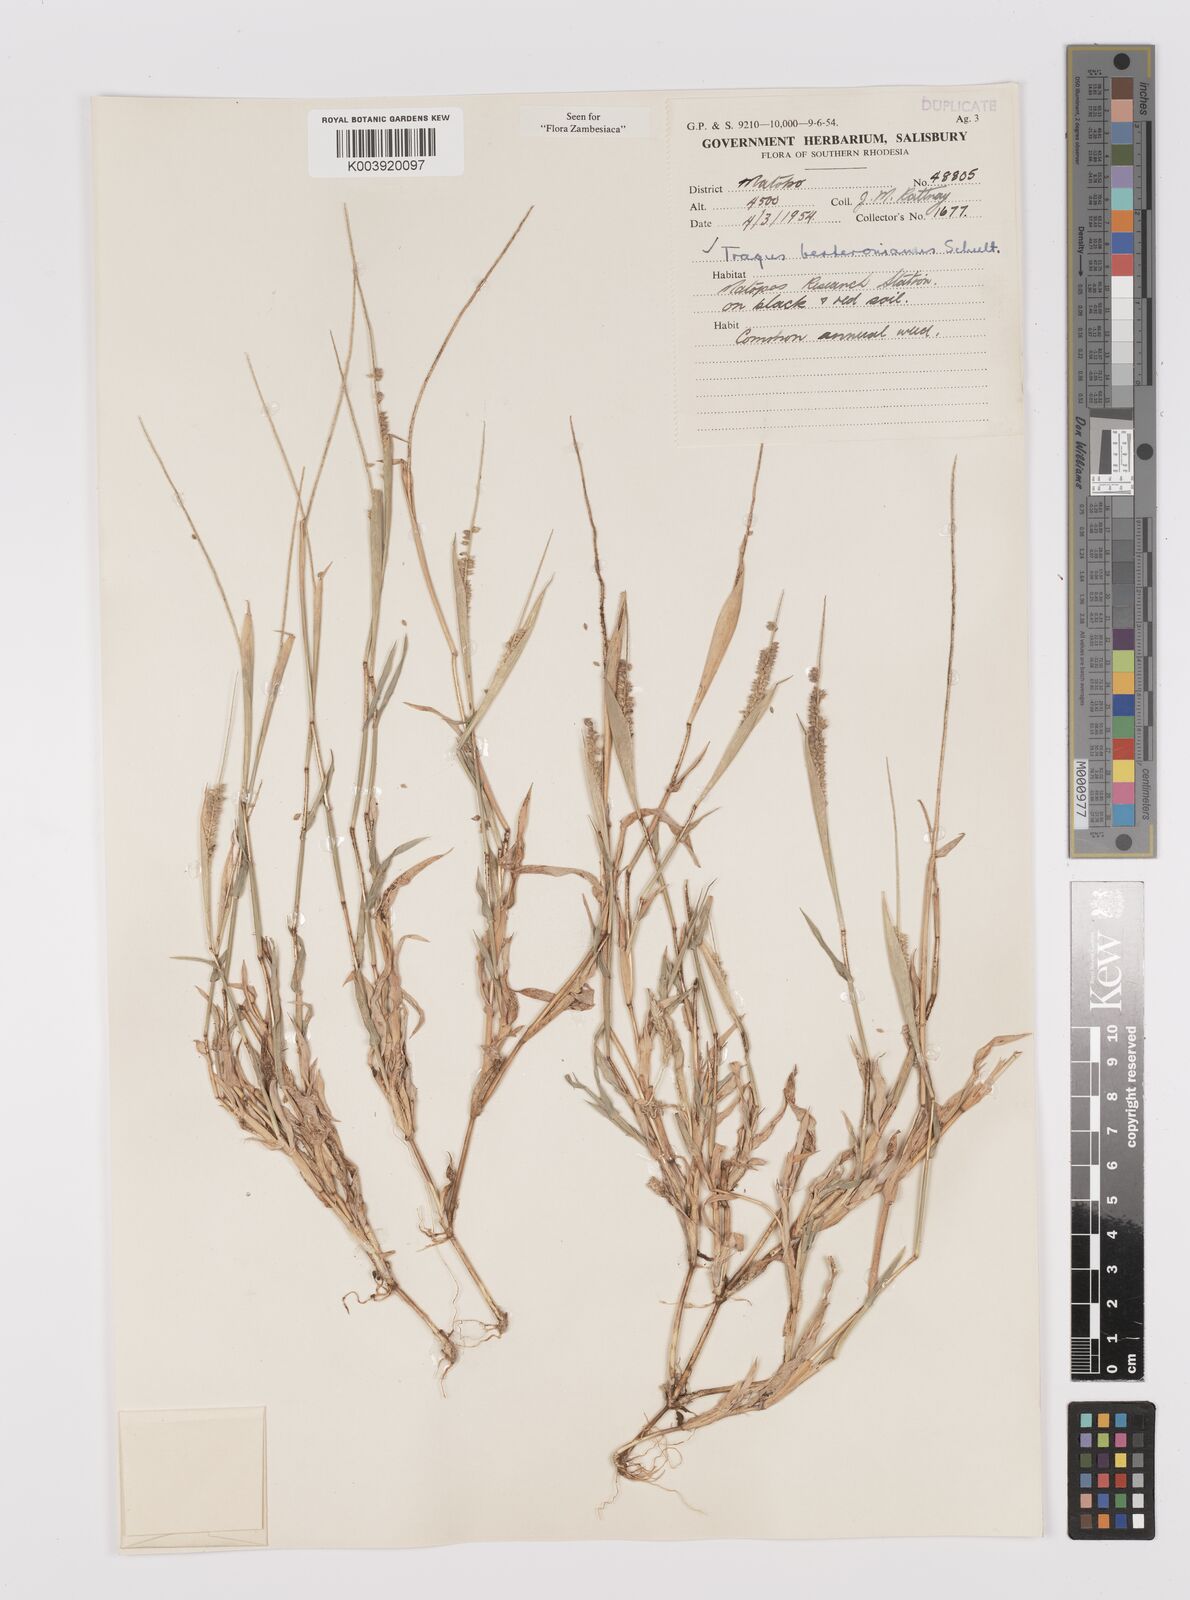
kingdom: Plantae
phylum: Tracheophyta
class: Liliopsida
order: Poales
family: Poaceae
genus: Tragus
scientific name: Tragus berteronianus
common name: African bur-grass
